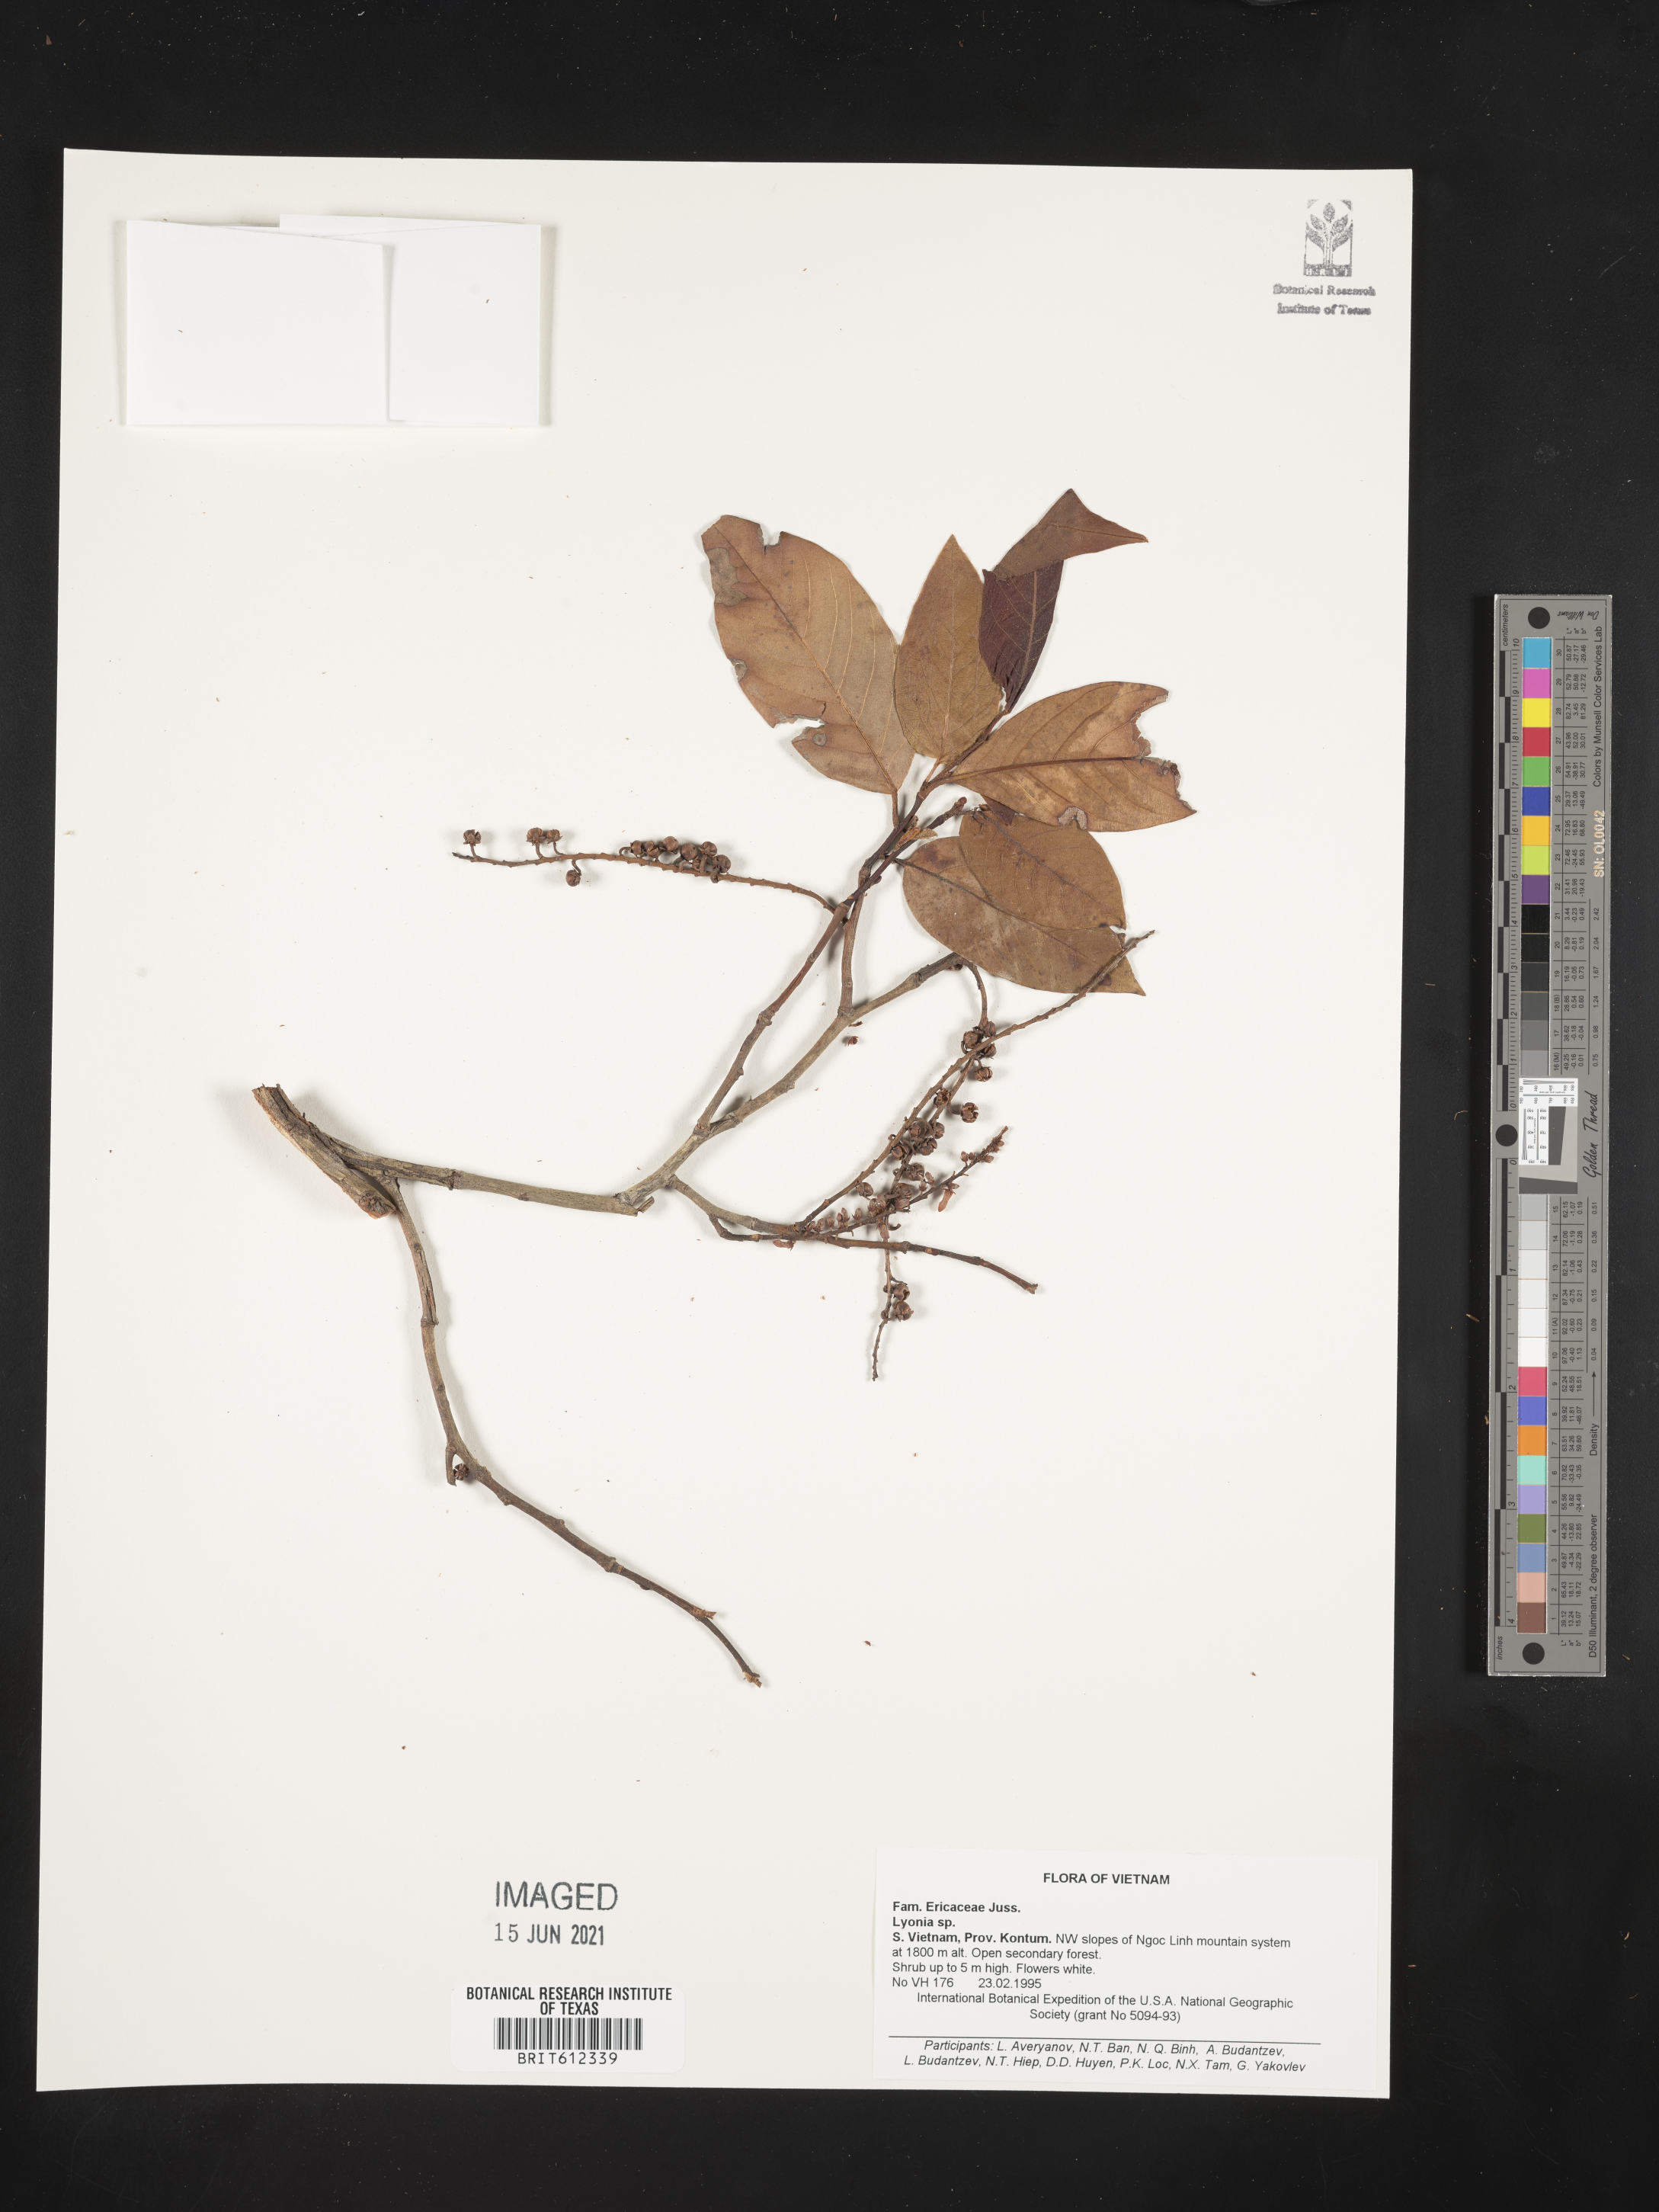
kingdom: Plantae
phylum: Tracheophyta
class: Magnoliopsida
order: Ericales
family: Ericaceae
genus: Lyonia
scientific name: Lyonia
